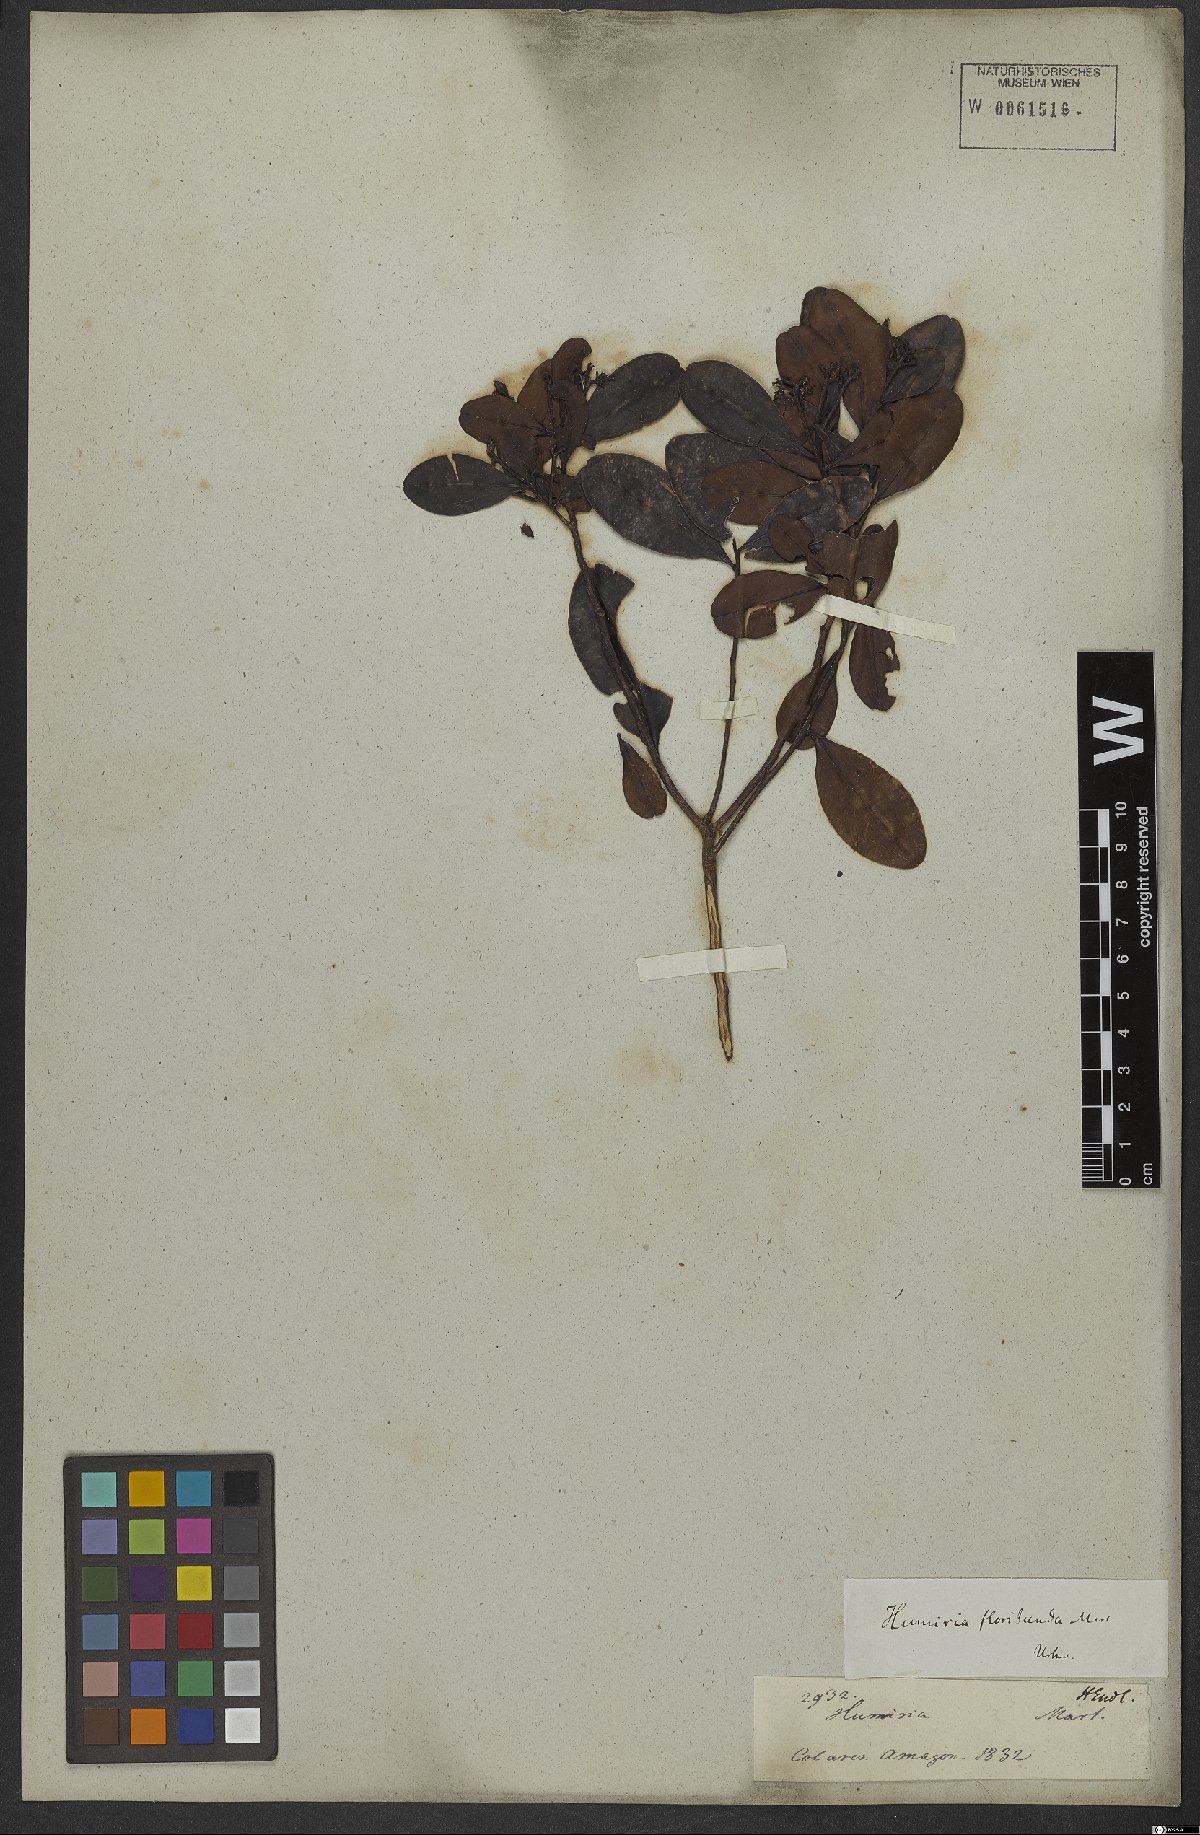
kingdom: Plantae
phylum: Tracheophyta
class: Magnoliopsida
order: Malpighiales
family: Humiriaceae
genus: Humiria
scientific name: Humiria balsamifera
